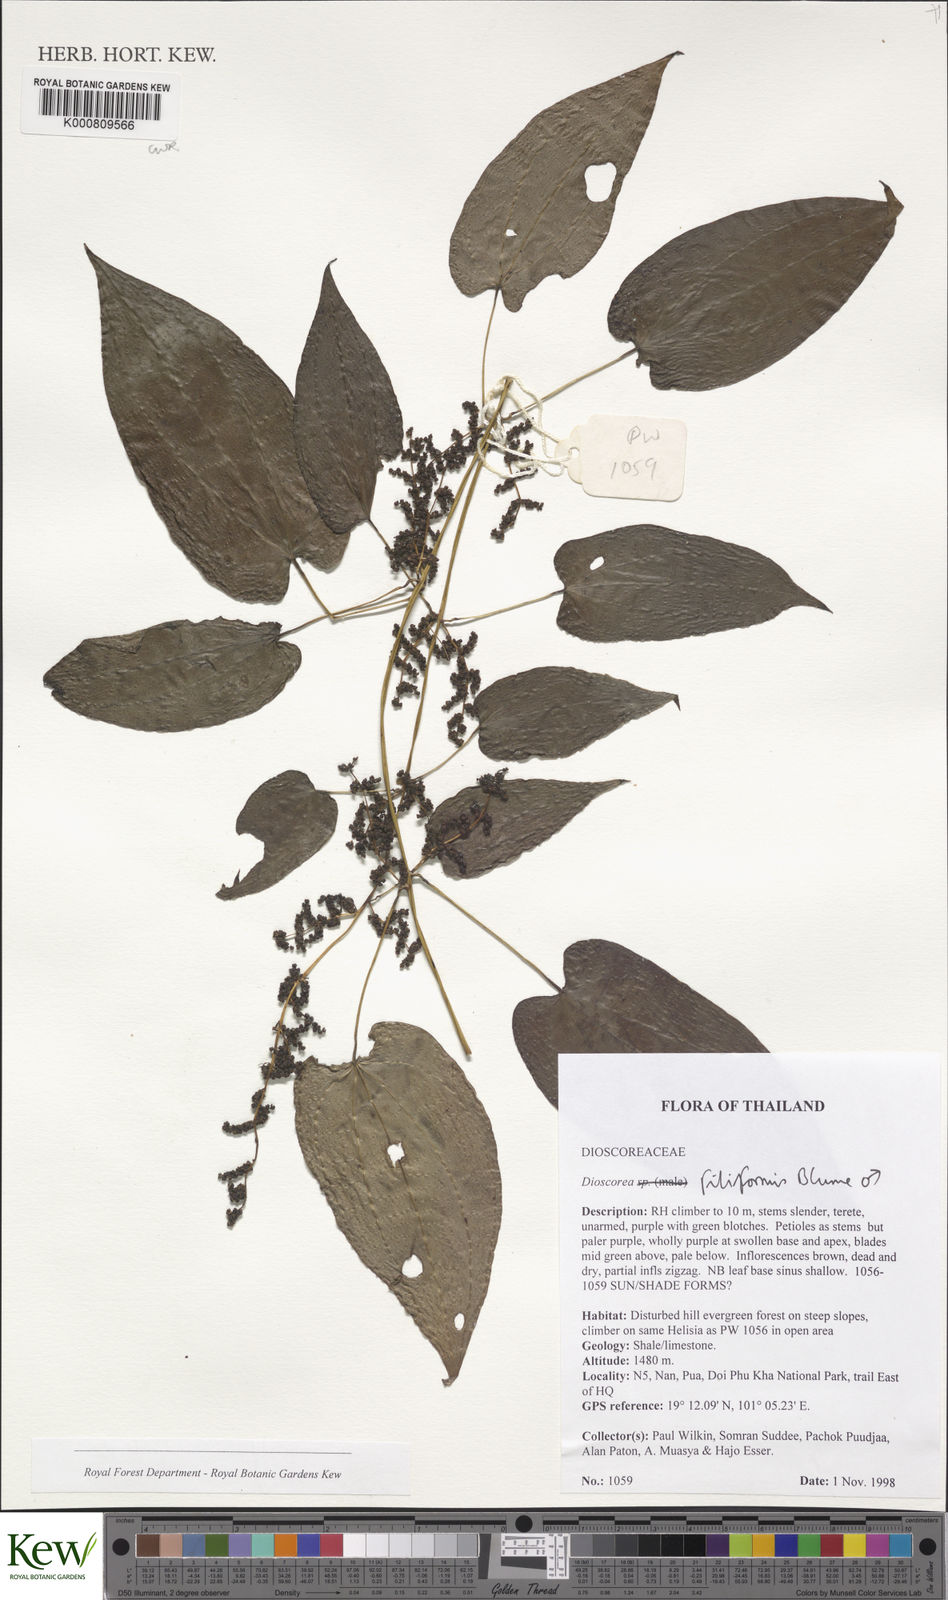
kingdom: Plantae
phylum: Tracheophyta
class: Liliopsida
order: Dioscoreales
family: Dioscoreaceae
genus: Dioscorea
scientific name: Dioscorea filiformis
